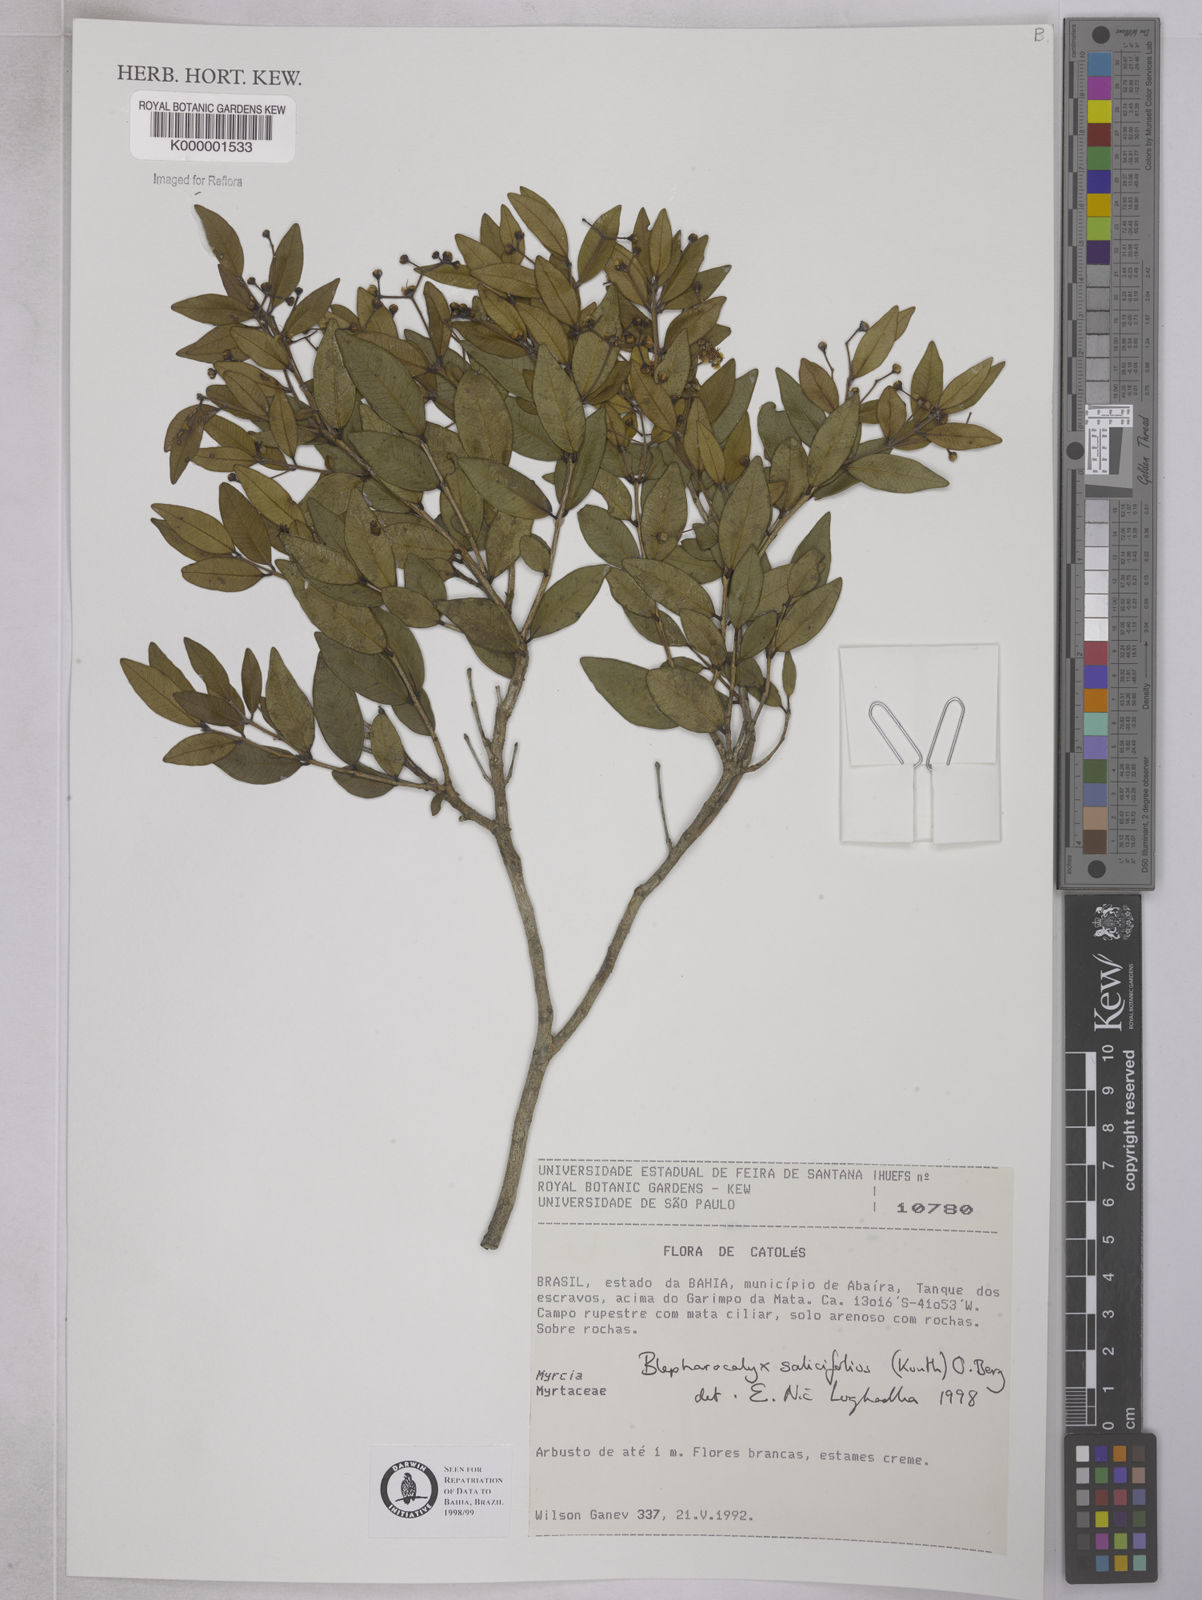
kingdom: Plantae
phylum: Tracheophyta
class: Magnoliopsida
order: Myrtales
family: Myrtaceae
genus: Blepharocalyx
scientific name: Blepharocalyx salicifolius
